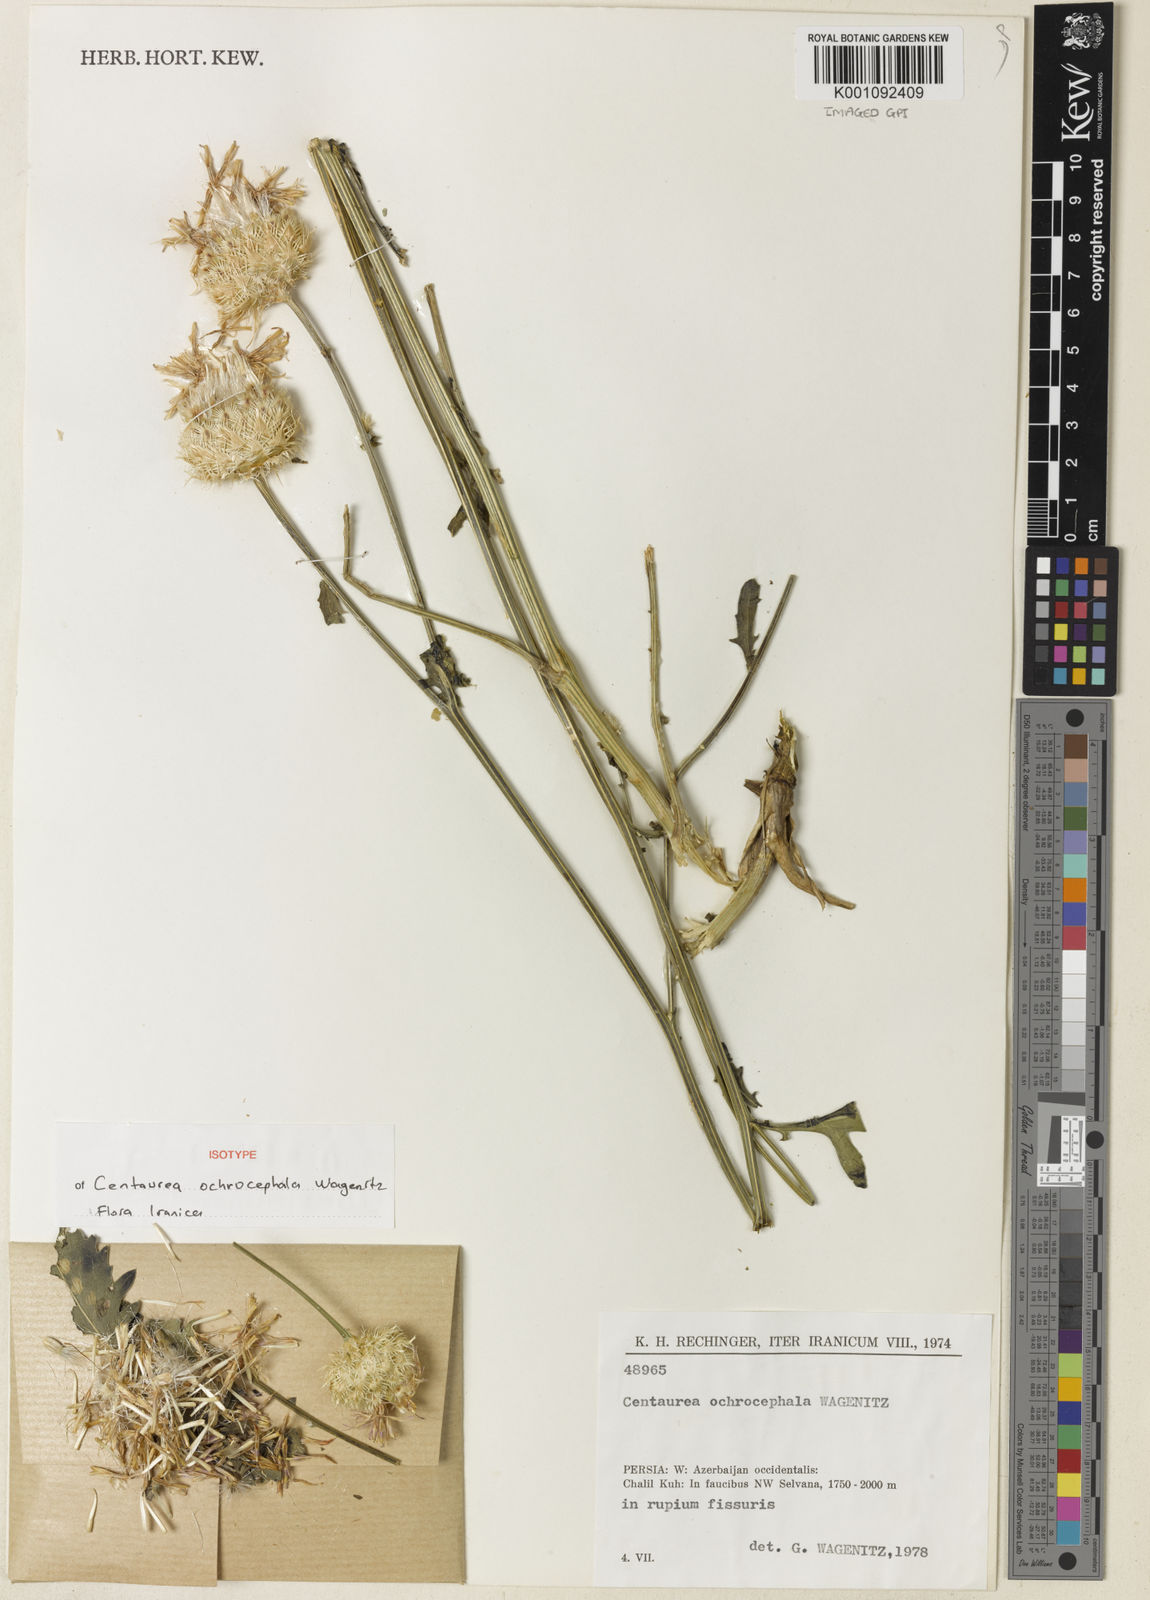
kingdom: Plantae
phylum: Tracheophyta
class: Magnoliopsida
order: Asterales
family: Asteraceae
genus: Centaurea
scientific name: Centaurea ochrocephala
